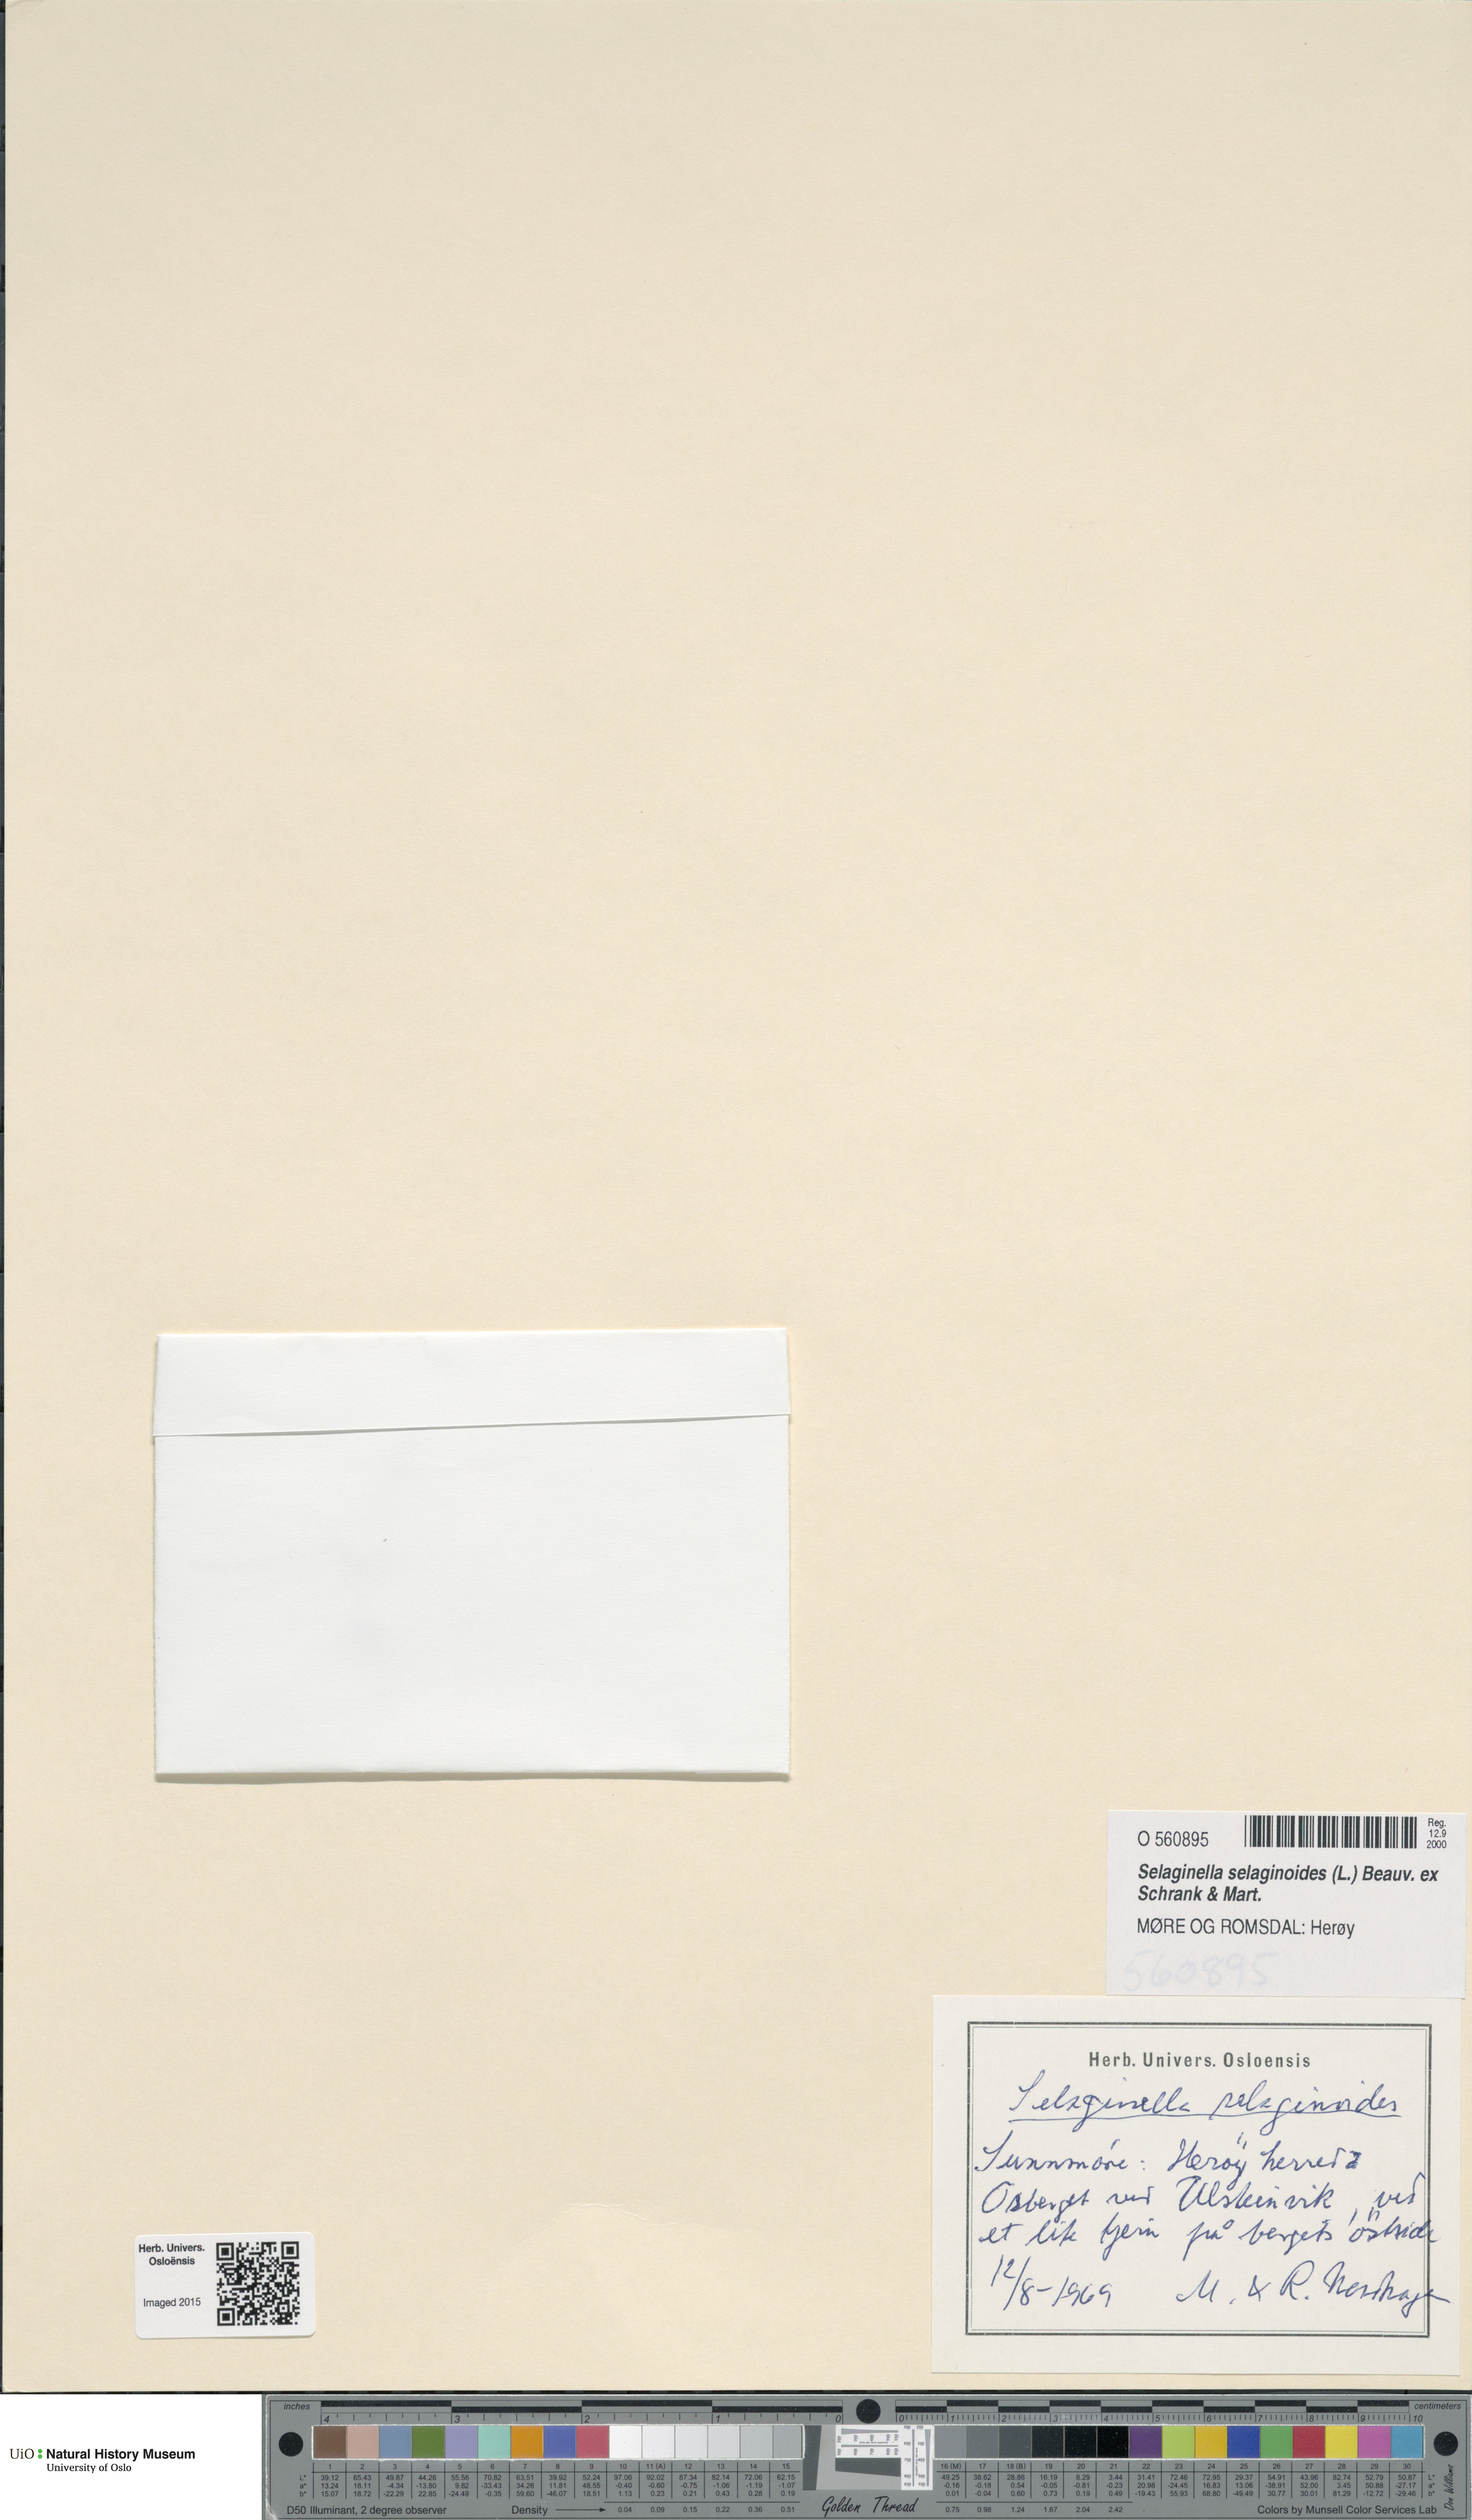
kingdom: Plantae
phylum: Tracheophyta
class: Lycopodiopsida
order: Selaginellales
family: Selaginellaceae
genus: Selaginella
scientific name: Selaginella selaginoides
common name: Prickly mountain-moss
